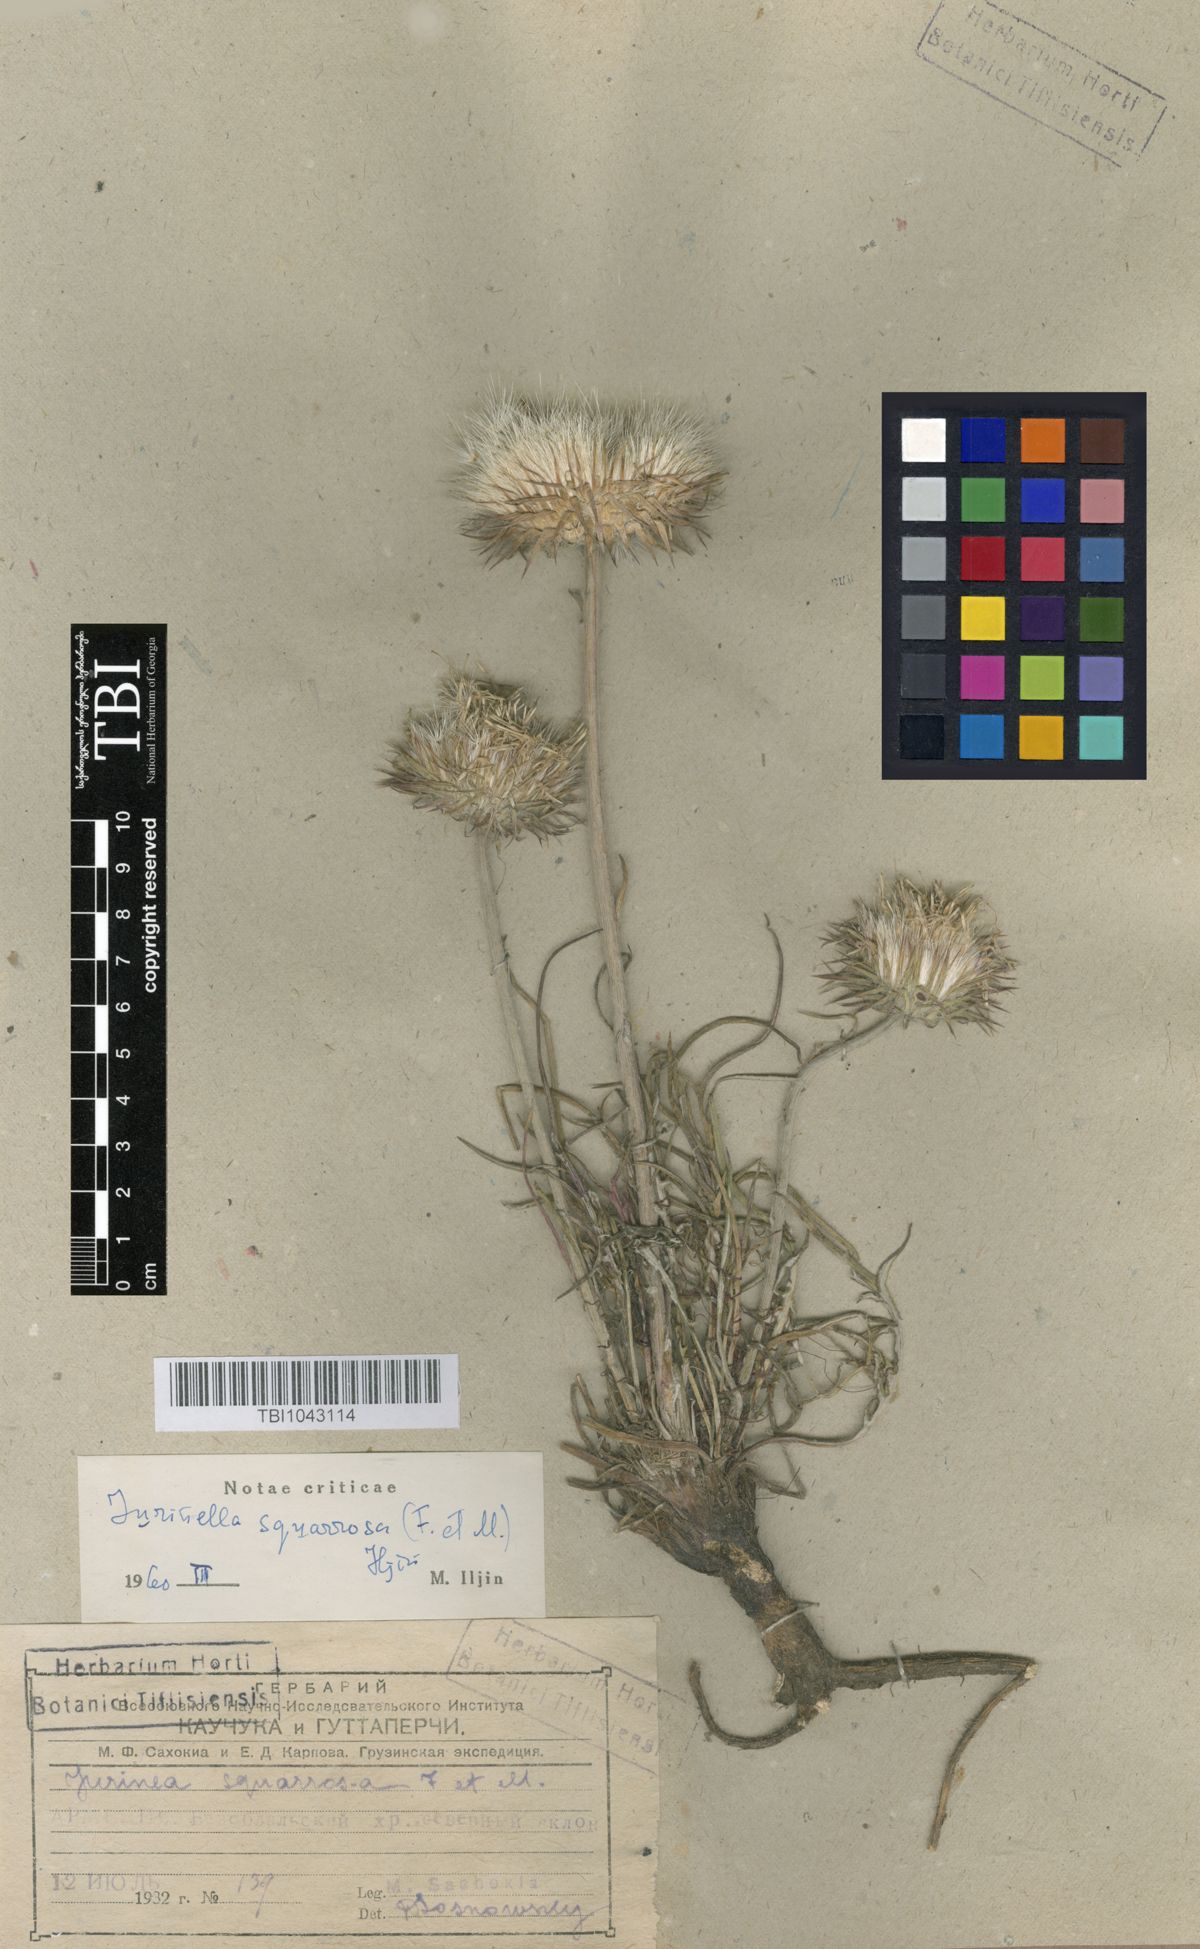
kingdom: Plantae
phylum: Tracheophyta
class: Magnoliopsida
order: Asterales
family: Asteraceae
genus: Jurinea
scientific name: Jurinea squarrosa
